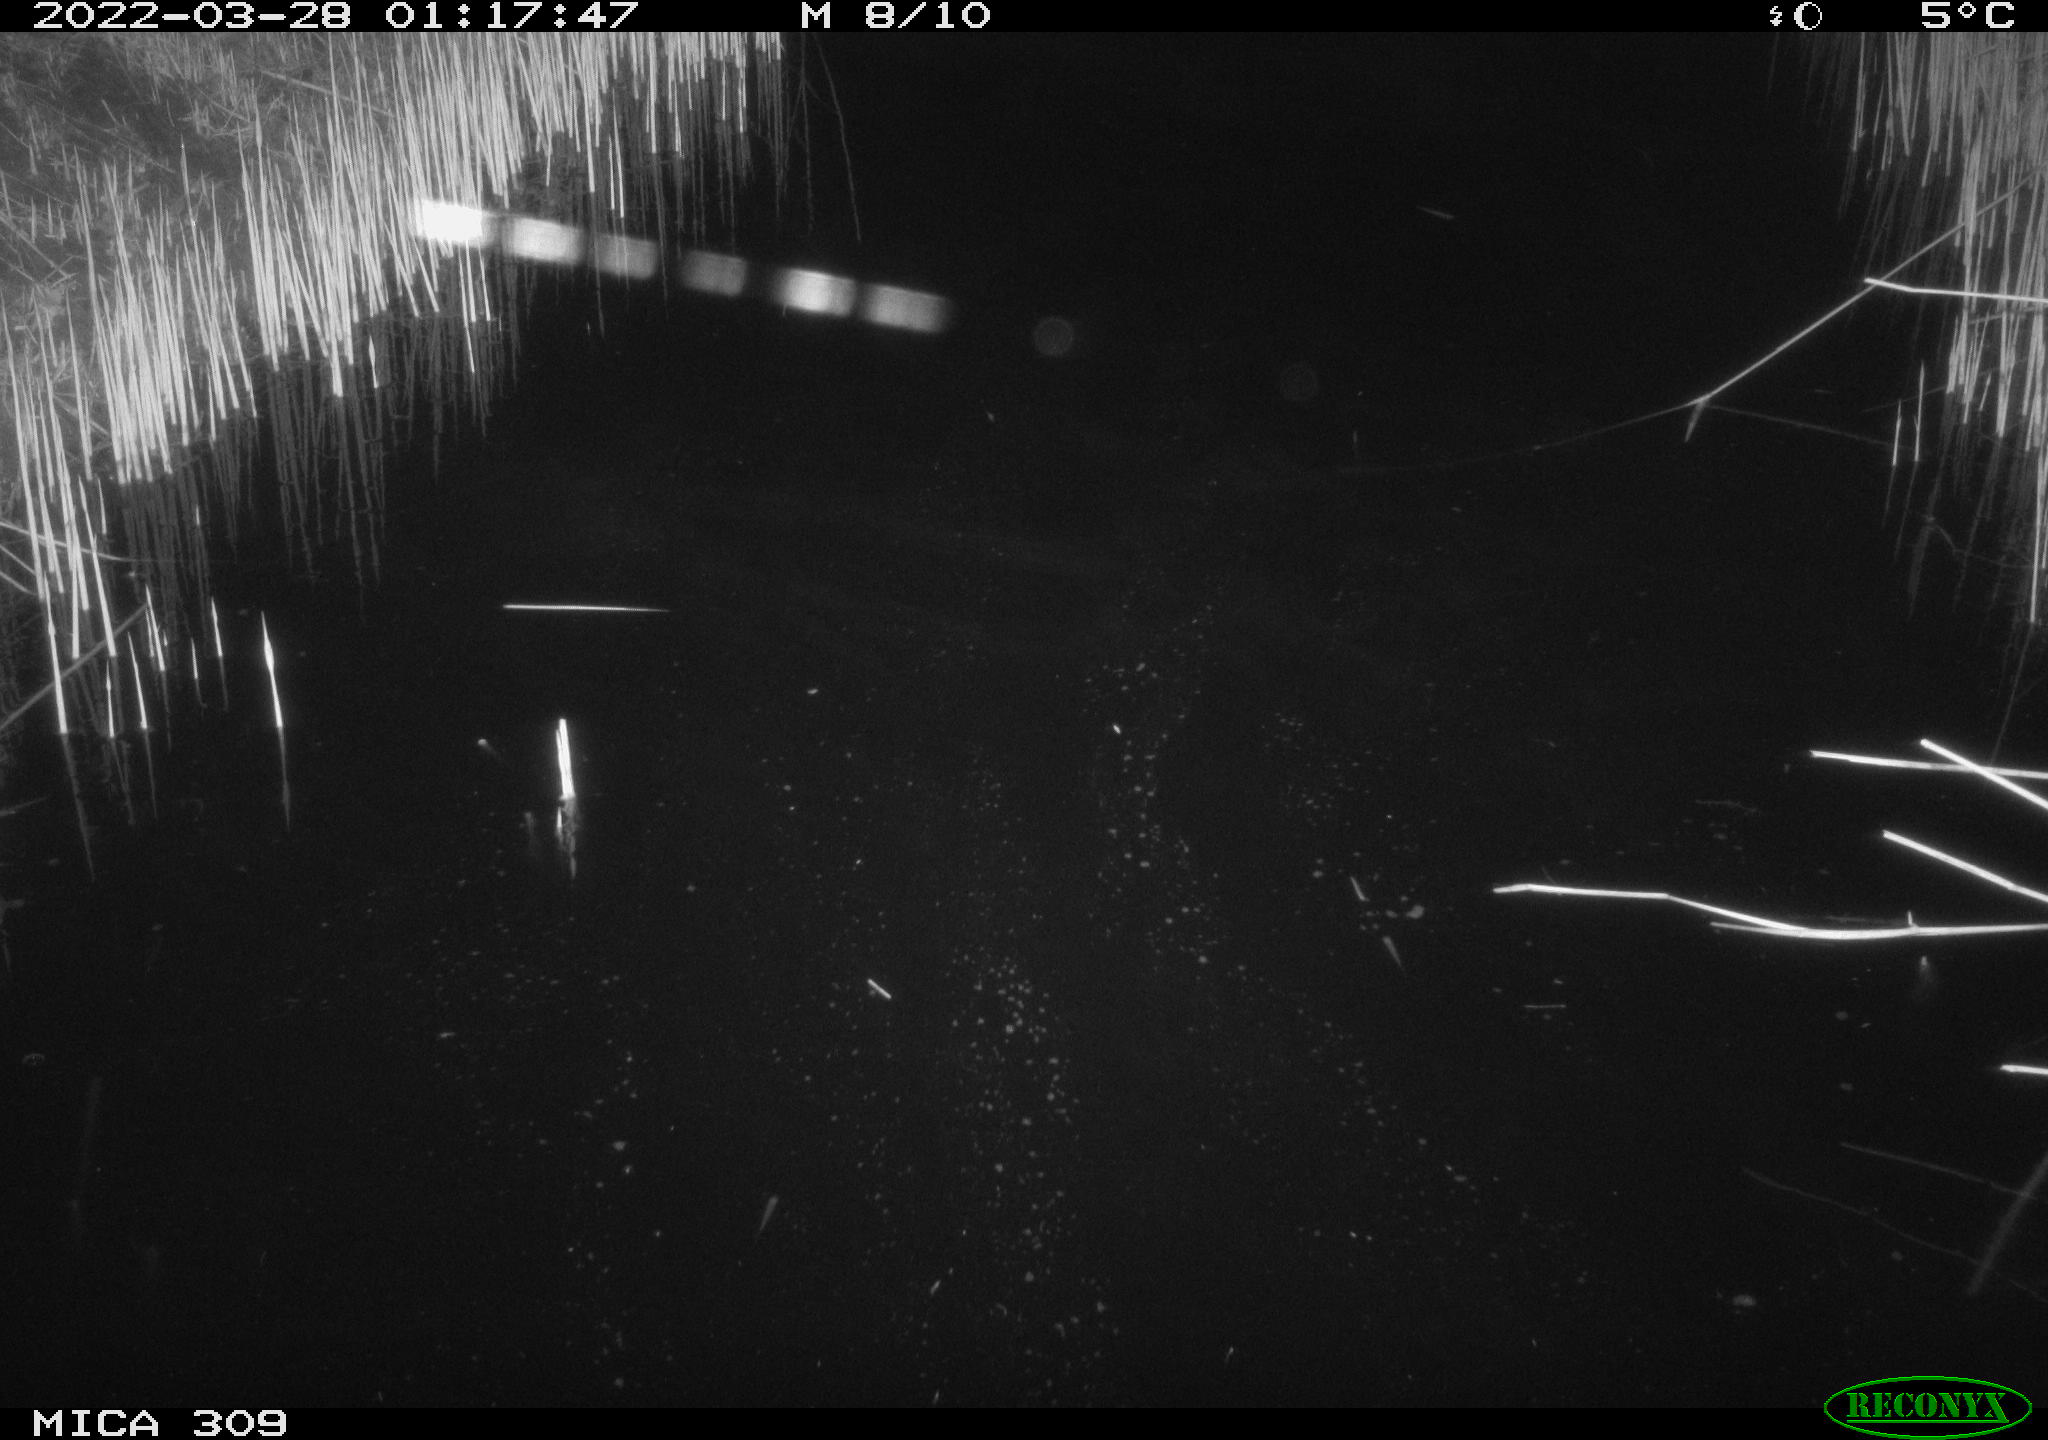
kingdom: Animalia
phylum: Chordata
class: Aves
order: Anseriformes
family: Anatidae
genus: Anas
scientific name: Anas platyrhynchos
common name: Mallard
